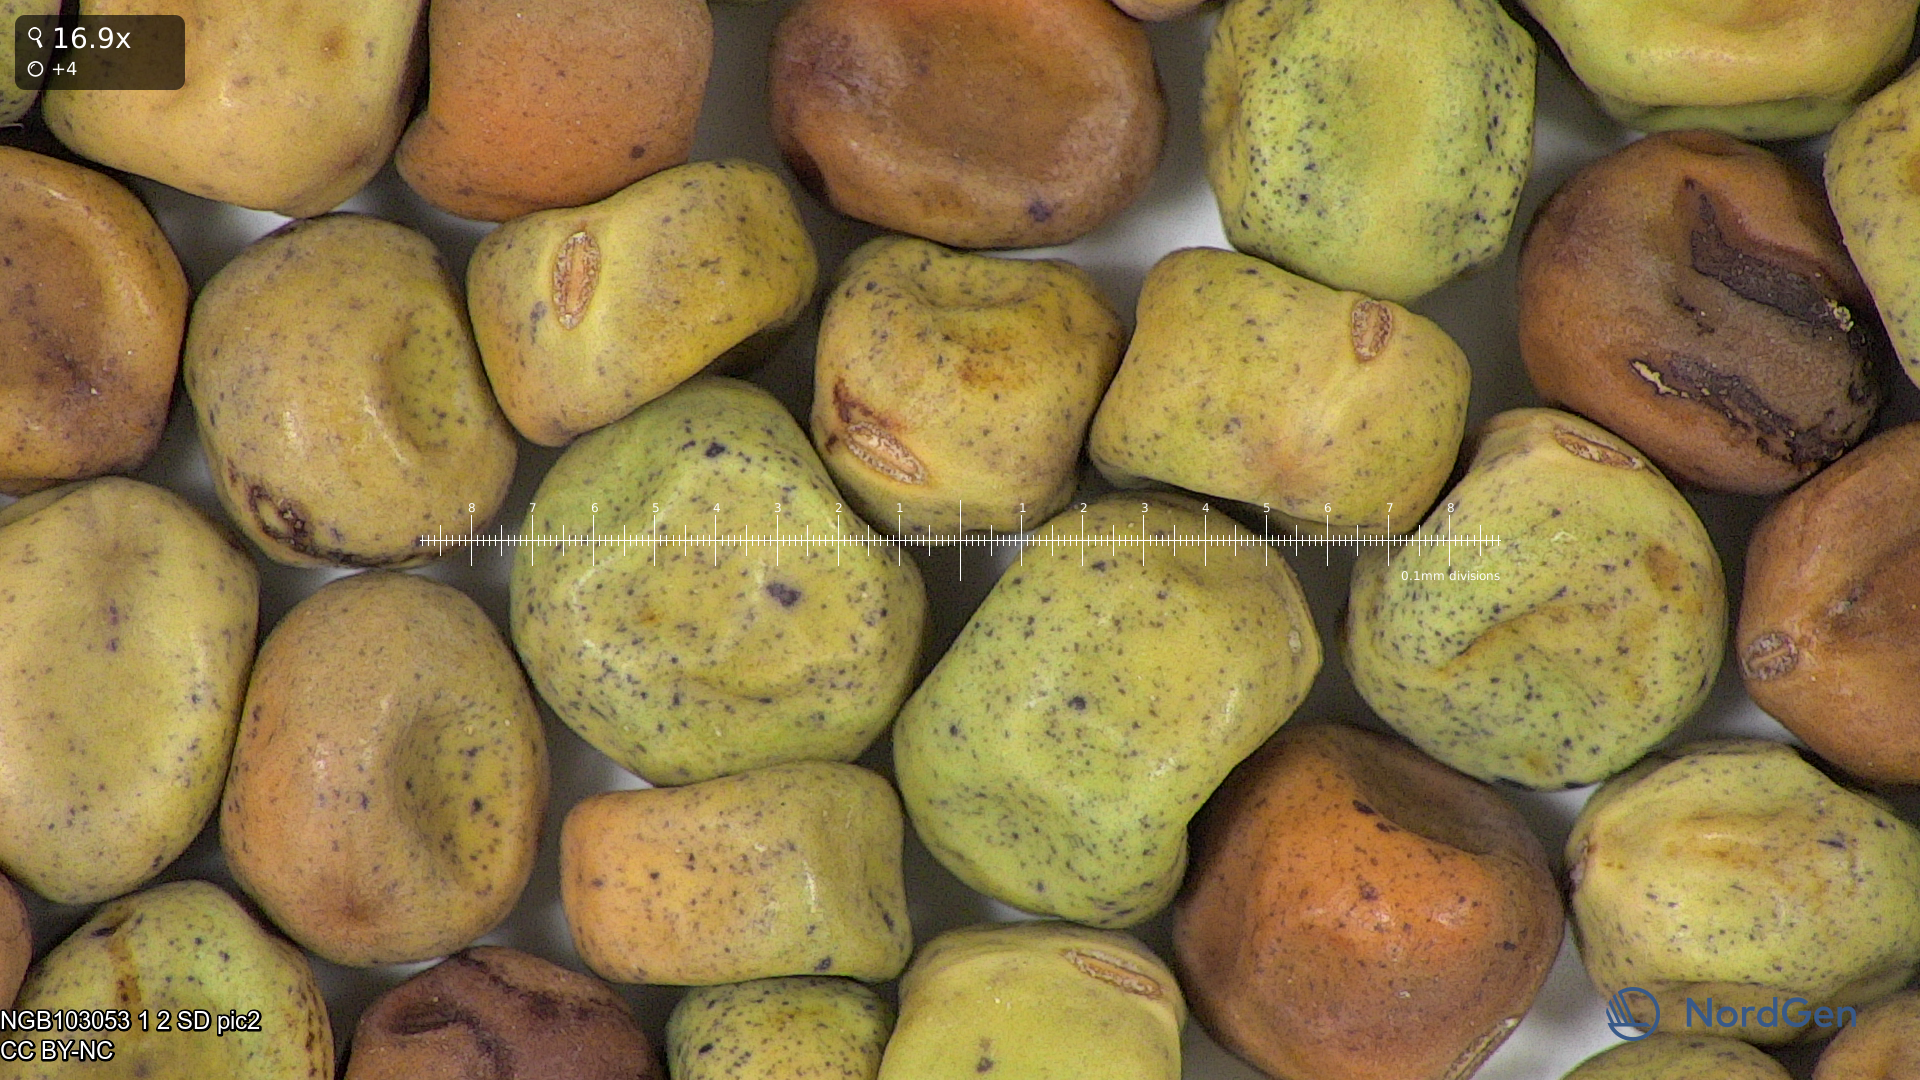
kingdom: Plantae
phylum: Tracheophyta
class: Magnoliopsida
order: Fabales
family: Fabaceae
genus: Lathyrus
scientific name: Lathyrus oleraceus
